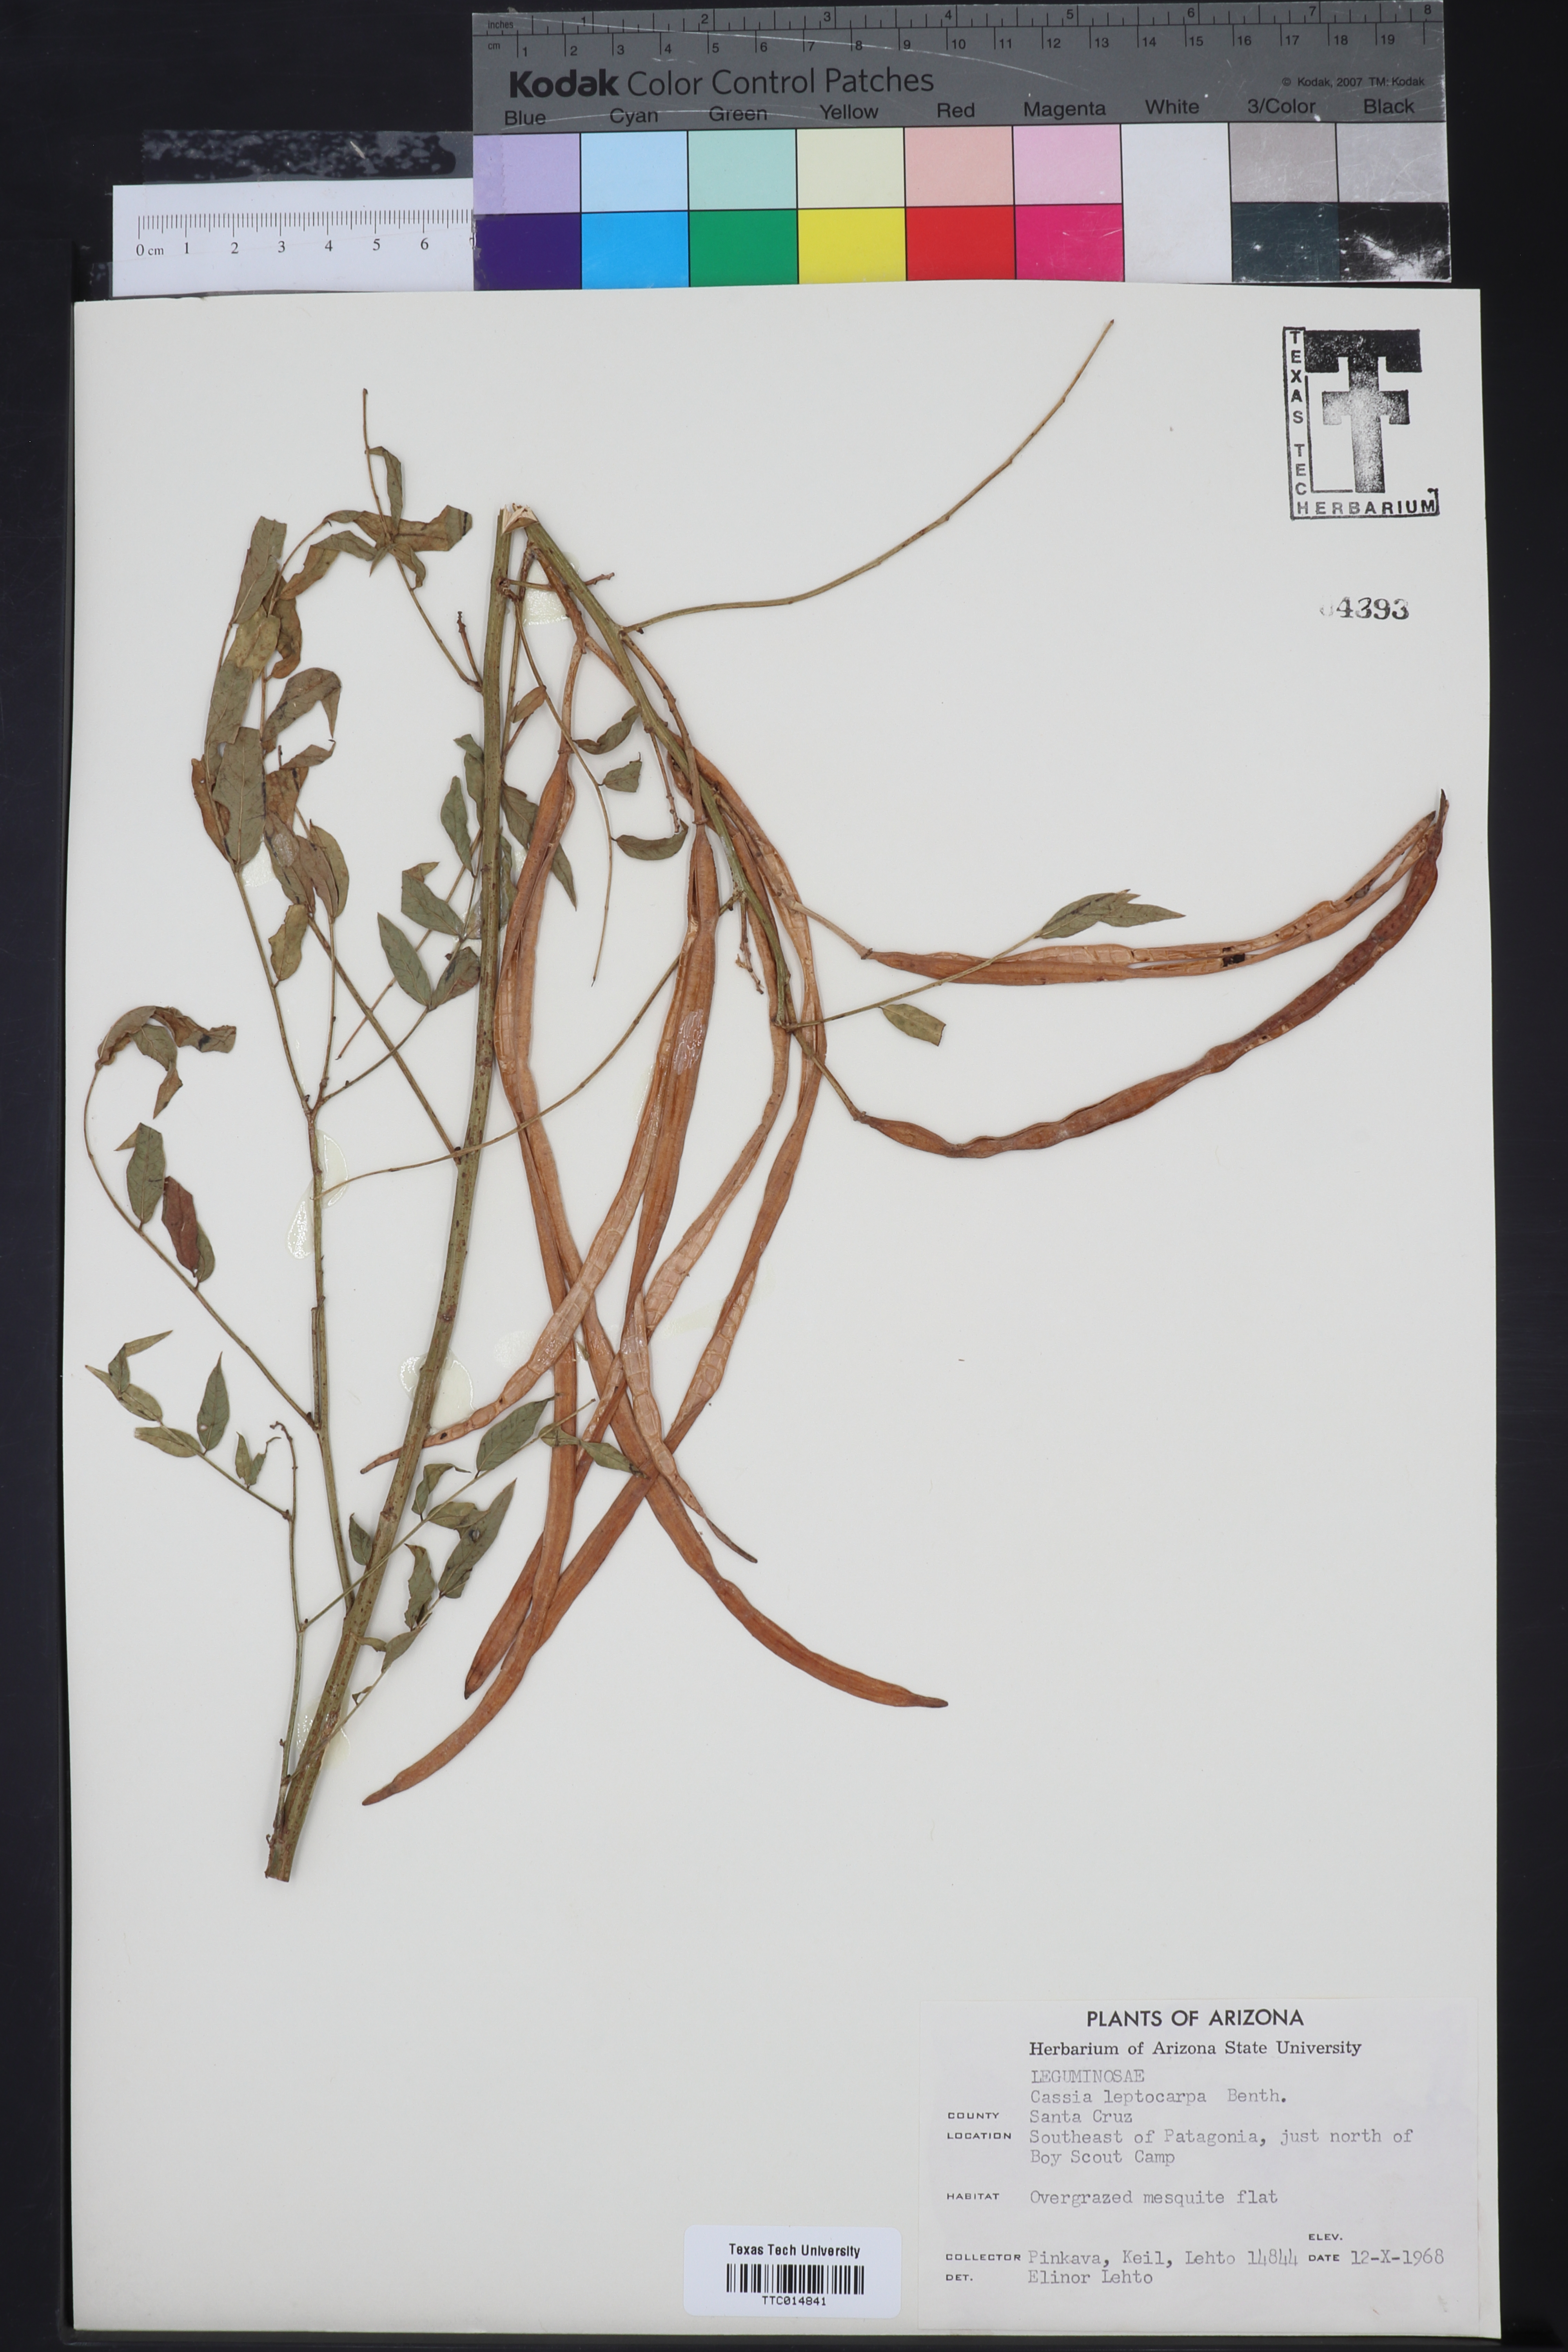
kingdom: Plantae
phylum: Tracheophyta
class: Magnoliopsida
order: Fabales
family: Fabaceae
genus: Senna
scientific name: Senna hirsuta
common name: Woolly senna
